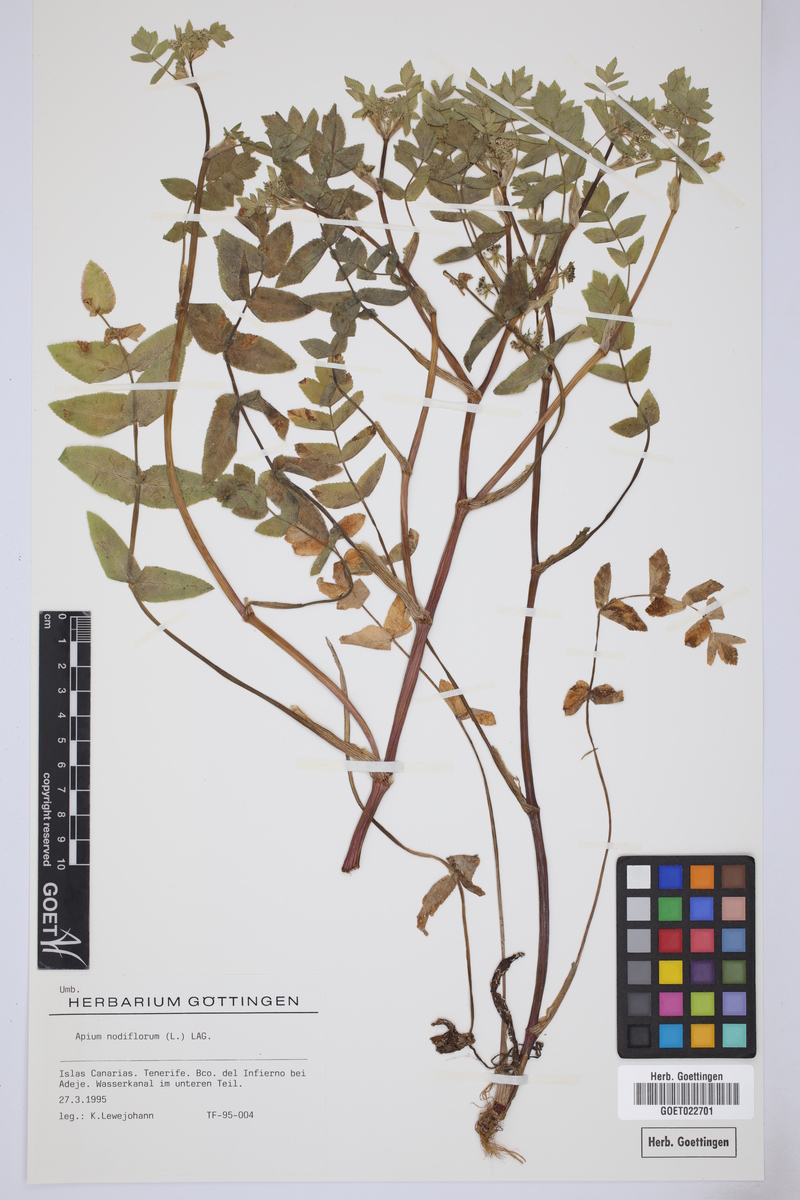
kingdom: Plantae
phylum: Tracheophyta
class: Magnoliopsida
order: Apiales
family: Apiaceae
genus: Helosciadium
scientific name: Helosciadium nodiflorum
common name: Fool's-watercress
